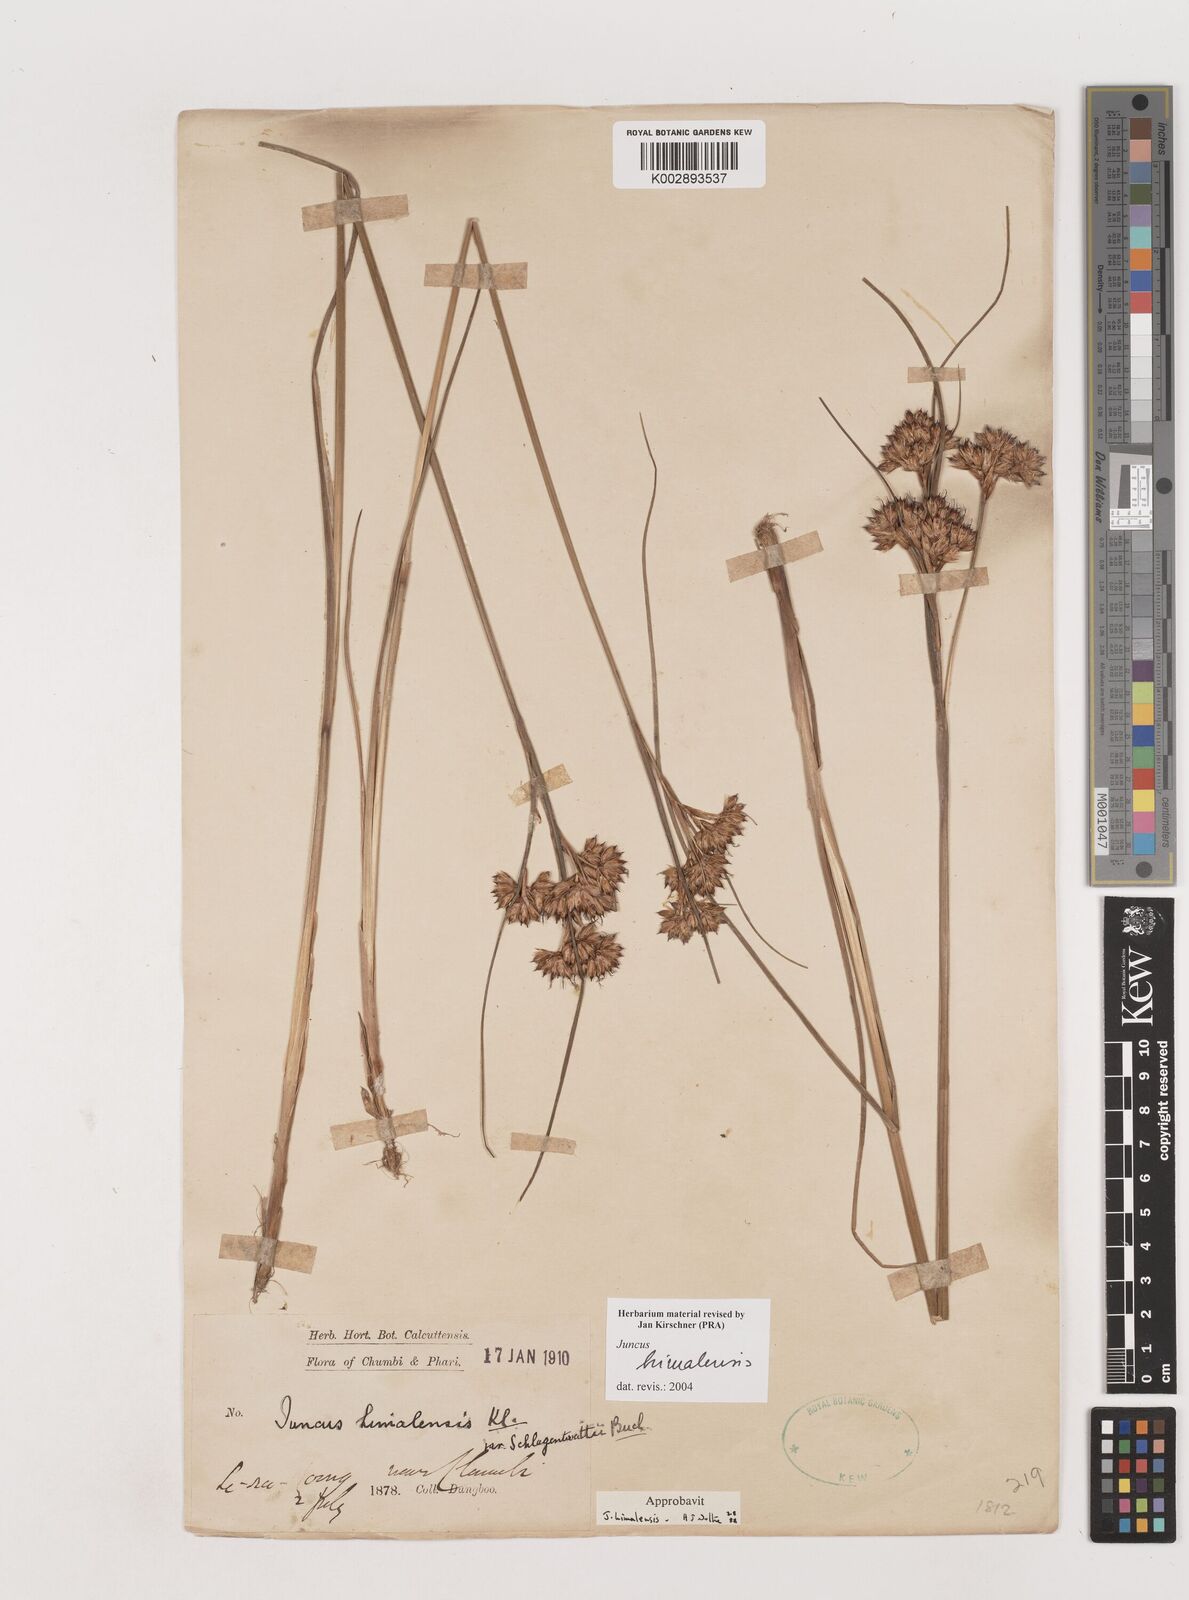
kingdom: Plantae
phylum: Tracheophyta
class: Liliopsida
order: Poales
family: Juncaceae
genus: Juncus
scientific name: Juncus himalensis
